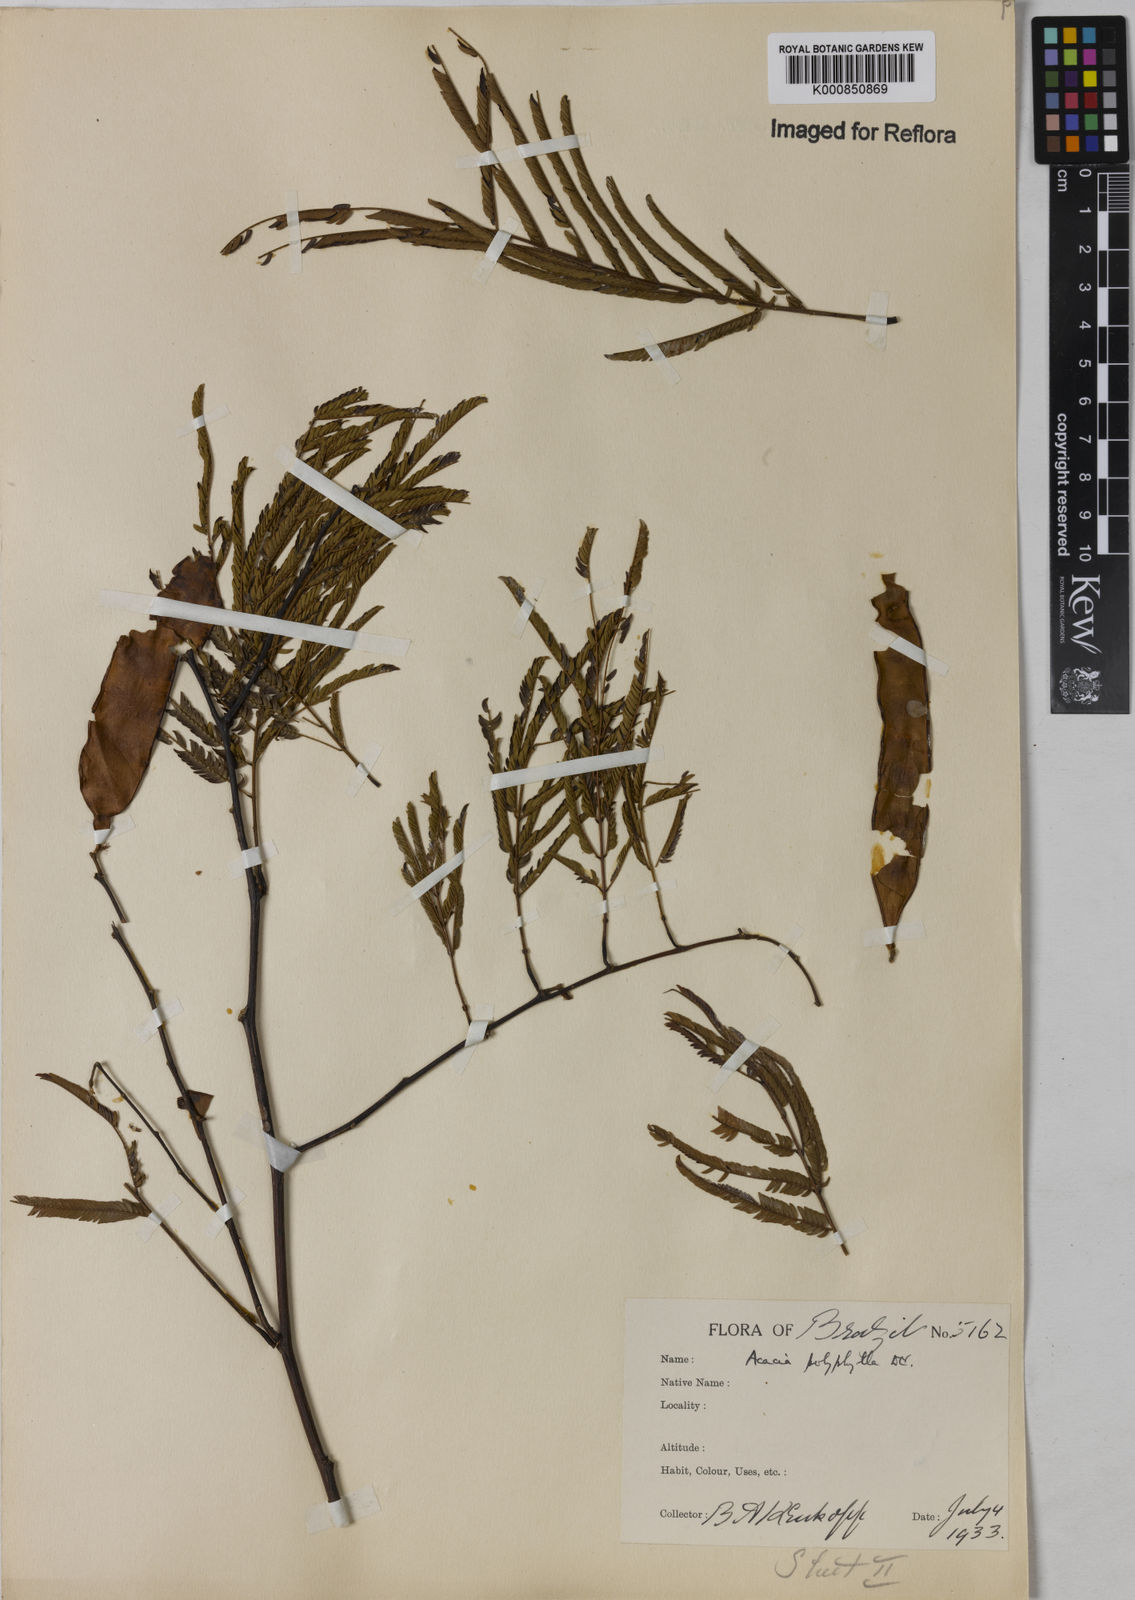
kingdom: Plantae
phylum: Tracheophyta
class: Magnoliopsida
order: Fabales
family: Fabaceae
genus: Senegalia
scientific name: Senegalia polyphylla
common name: White-tamarind
